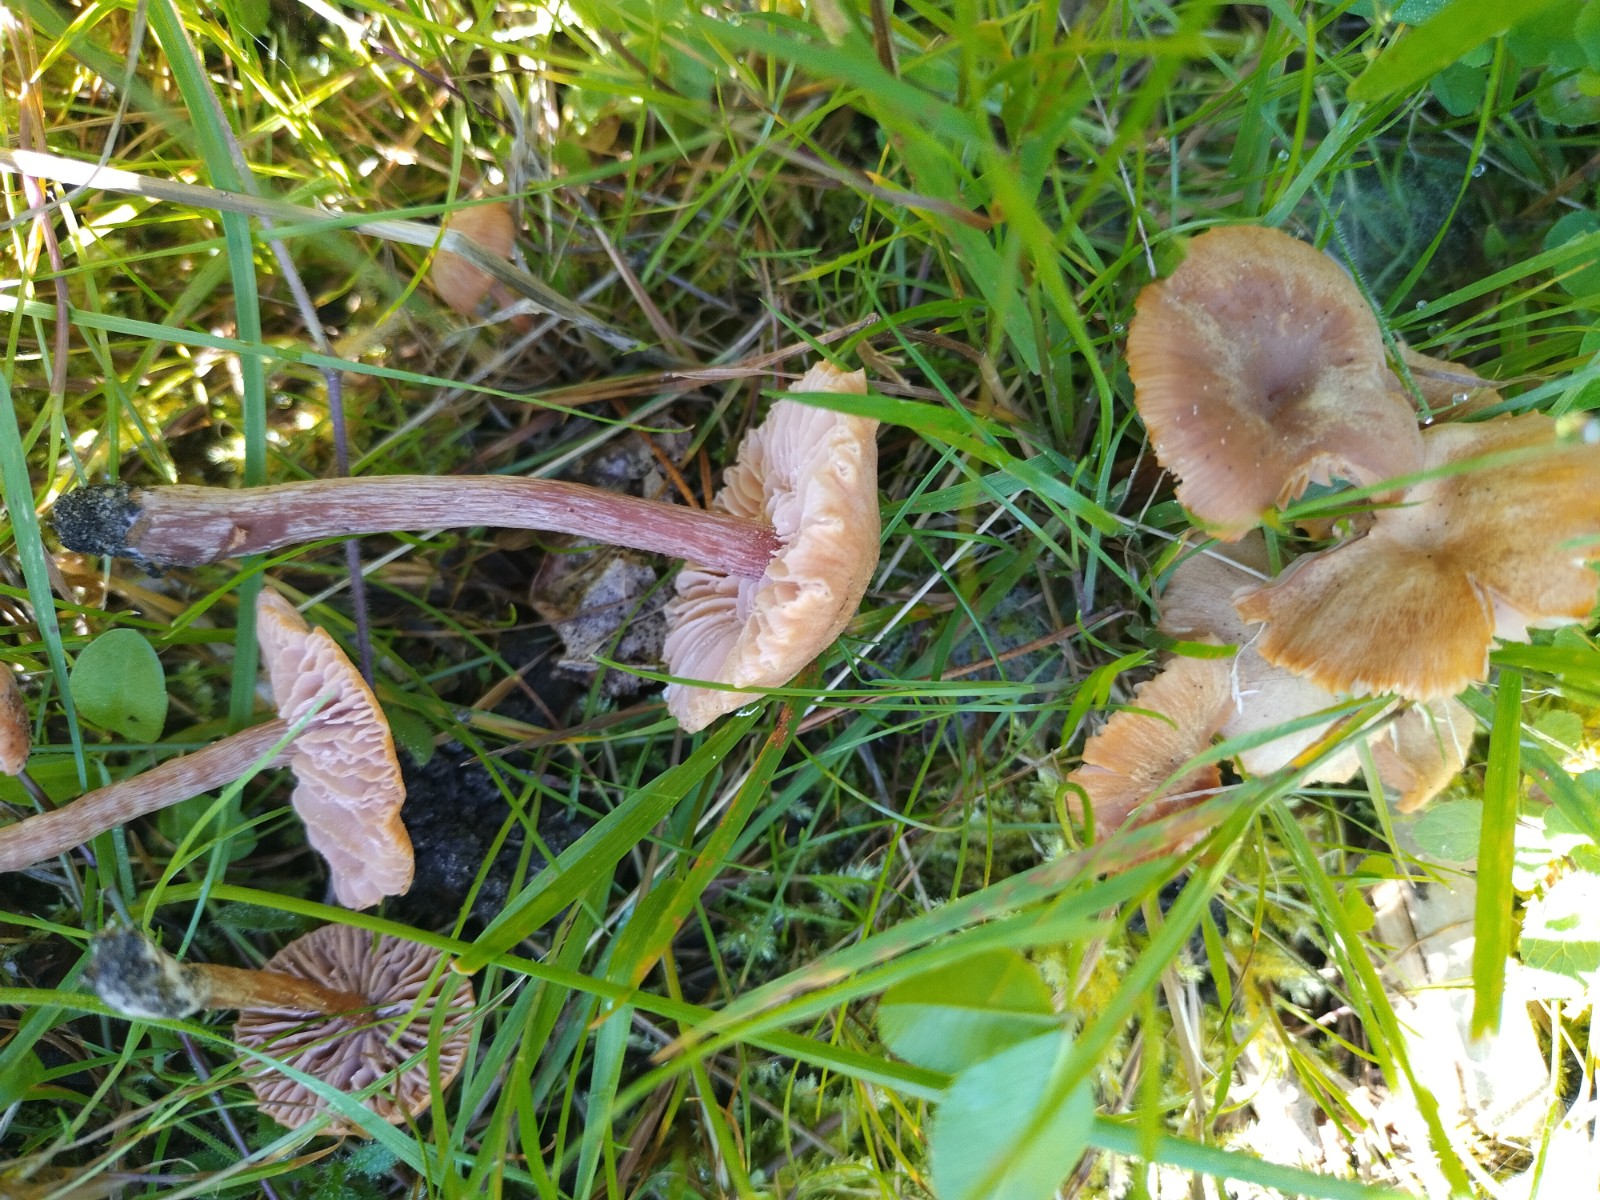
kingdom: Fungi
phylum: Basidiomycota
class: Agaricomycetes
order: Agaricales
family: Hydnangiaceae
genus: Laccaria
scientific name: Laccaria laccata
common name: rød ametysthat
